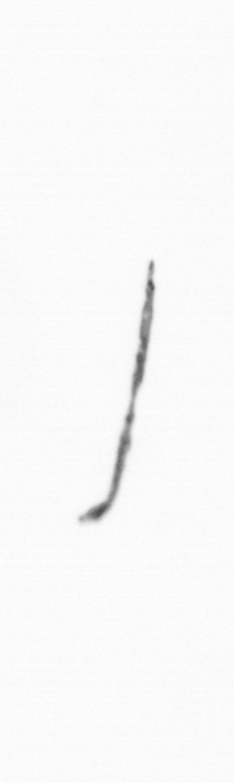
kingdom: Chromista
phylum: Ochrophyta
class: Bacillariophyceae
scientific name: Bacillariophyceae
